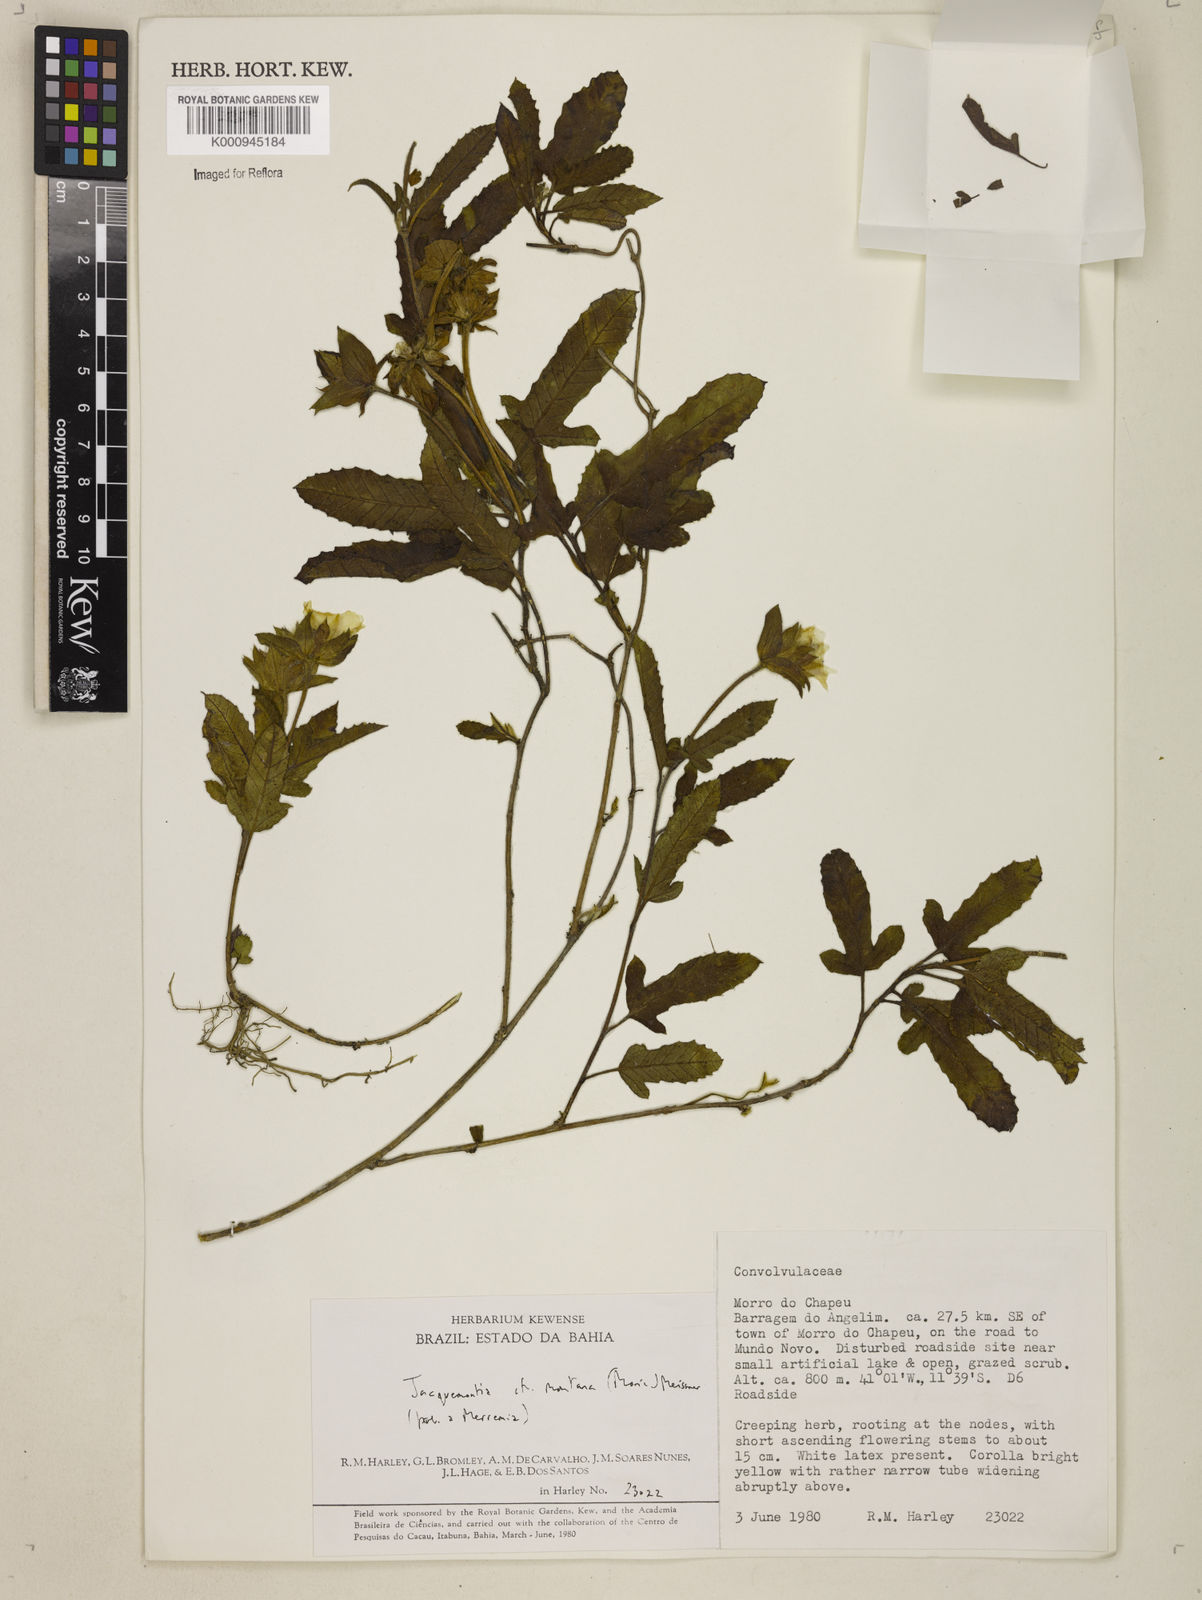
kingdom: Plantae
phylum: Tracheophyta
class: Magnoliopsida
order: Solanales
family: Convolvulaceae
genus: Daustinia
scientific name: Daustinia montana
